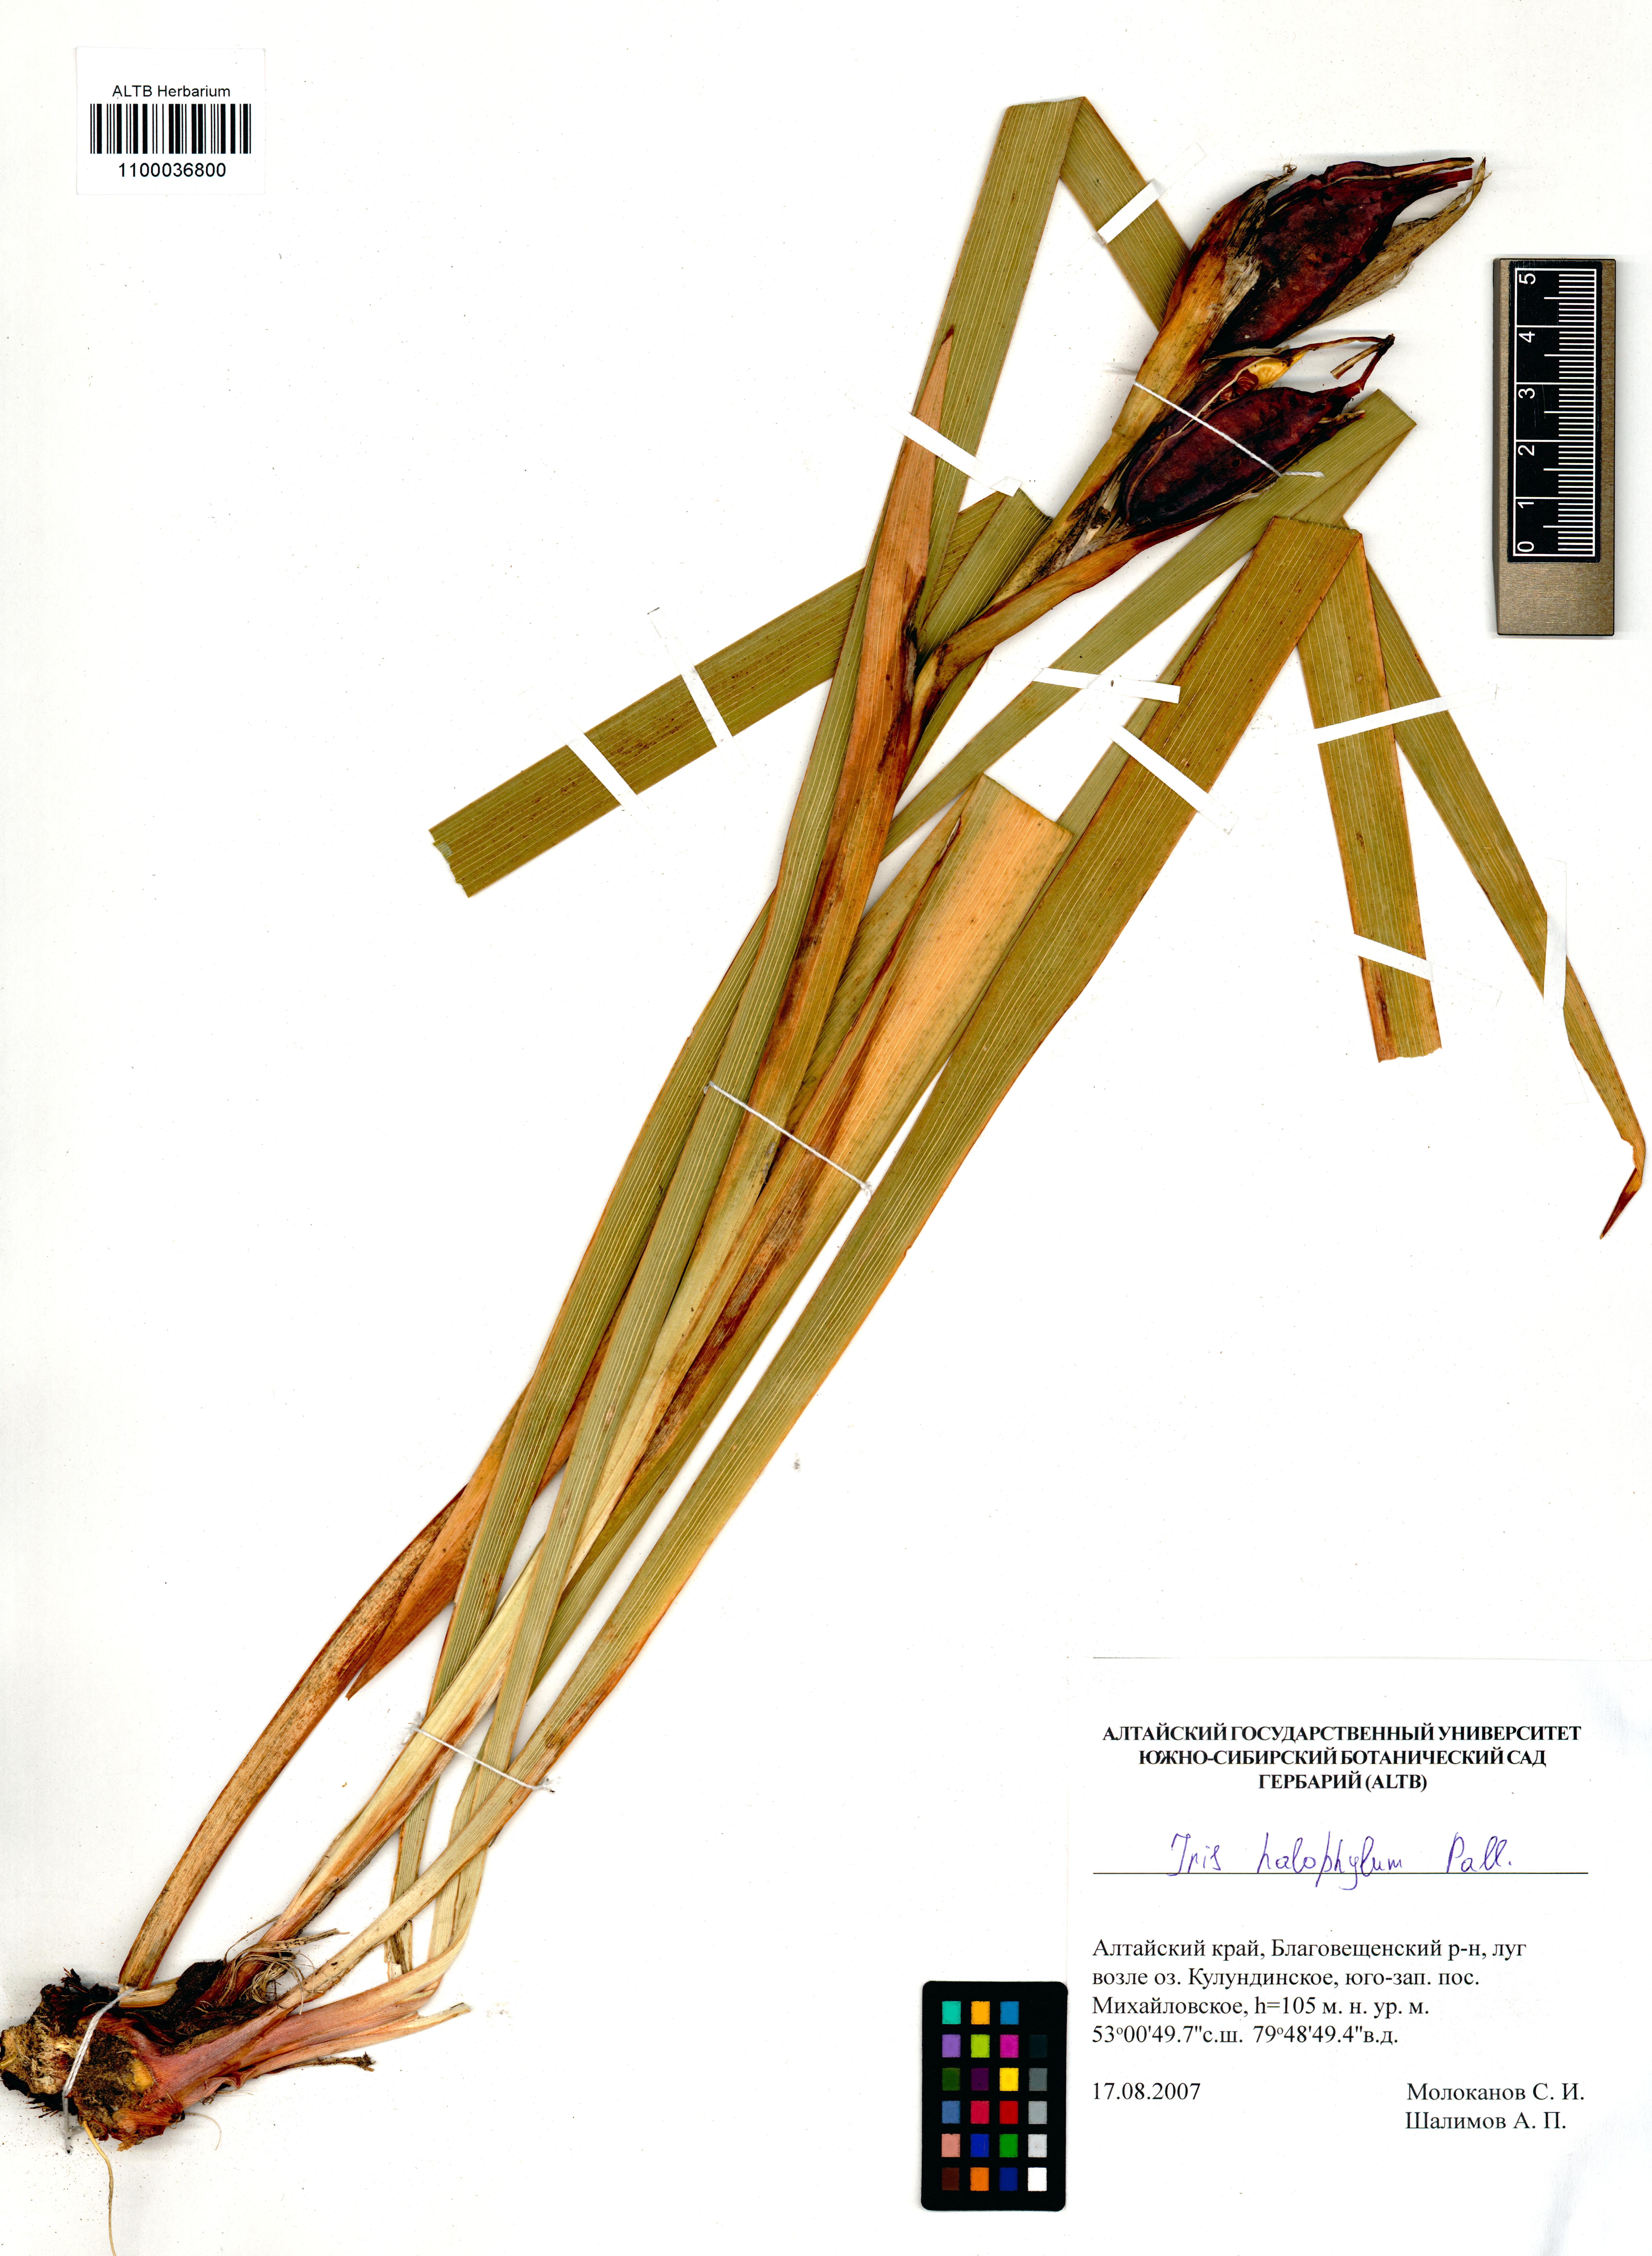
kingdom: Plantae
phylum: Tracheophyta
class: Liliopsida
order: Asparagales
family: Iridaceae
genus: Iris
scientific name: Iris halophila
